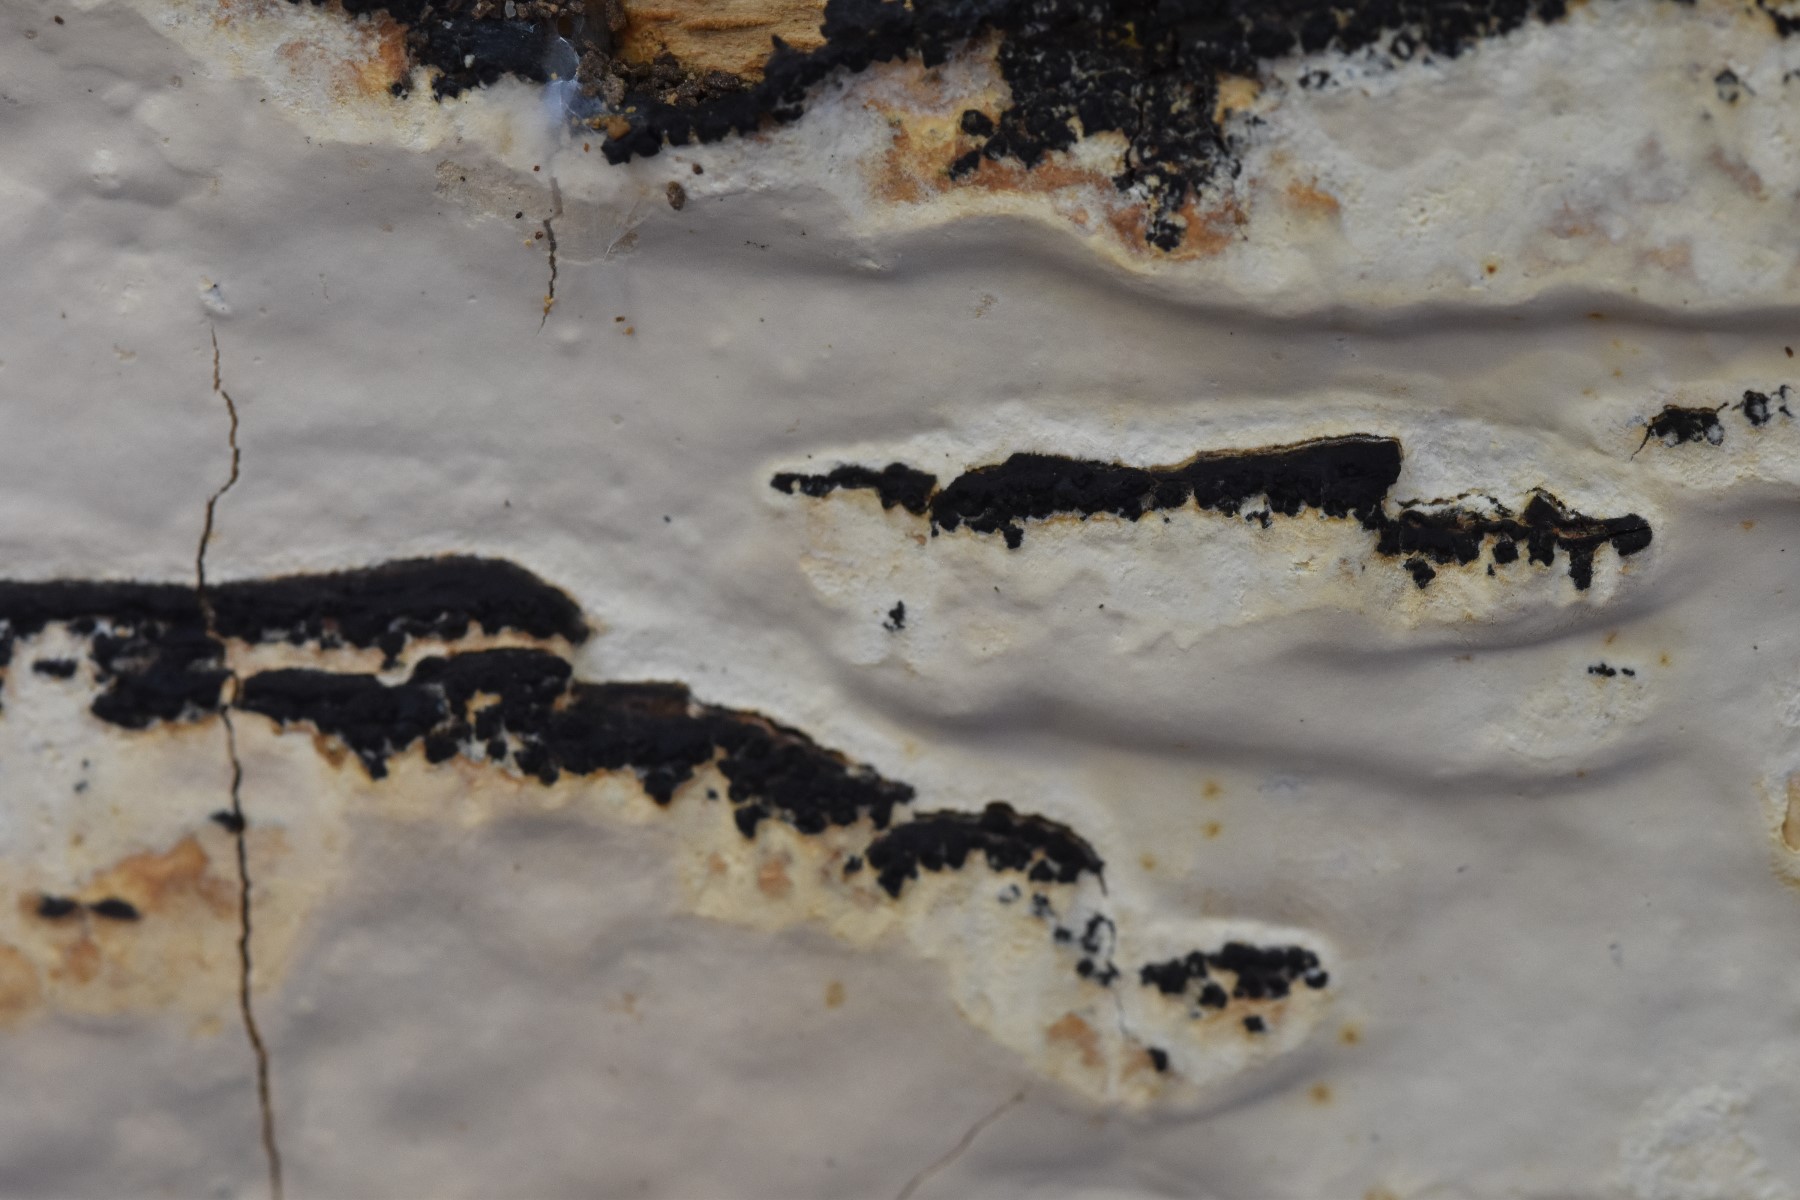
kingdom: Fungi
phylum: Basidiomycota
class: Agaricomycetes
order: Russulales
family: Peniophoraceae
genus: Scytinostroma
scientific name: Scytinostroma hemidichophyticum
